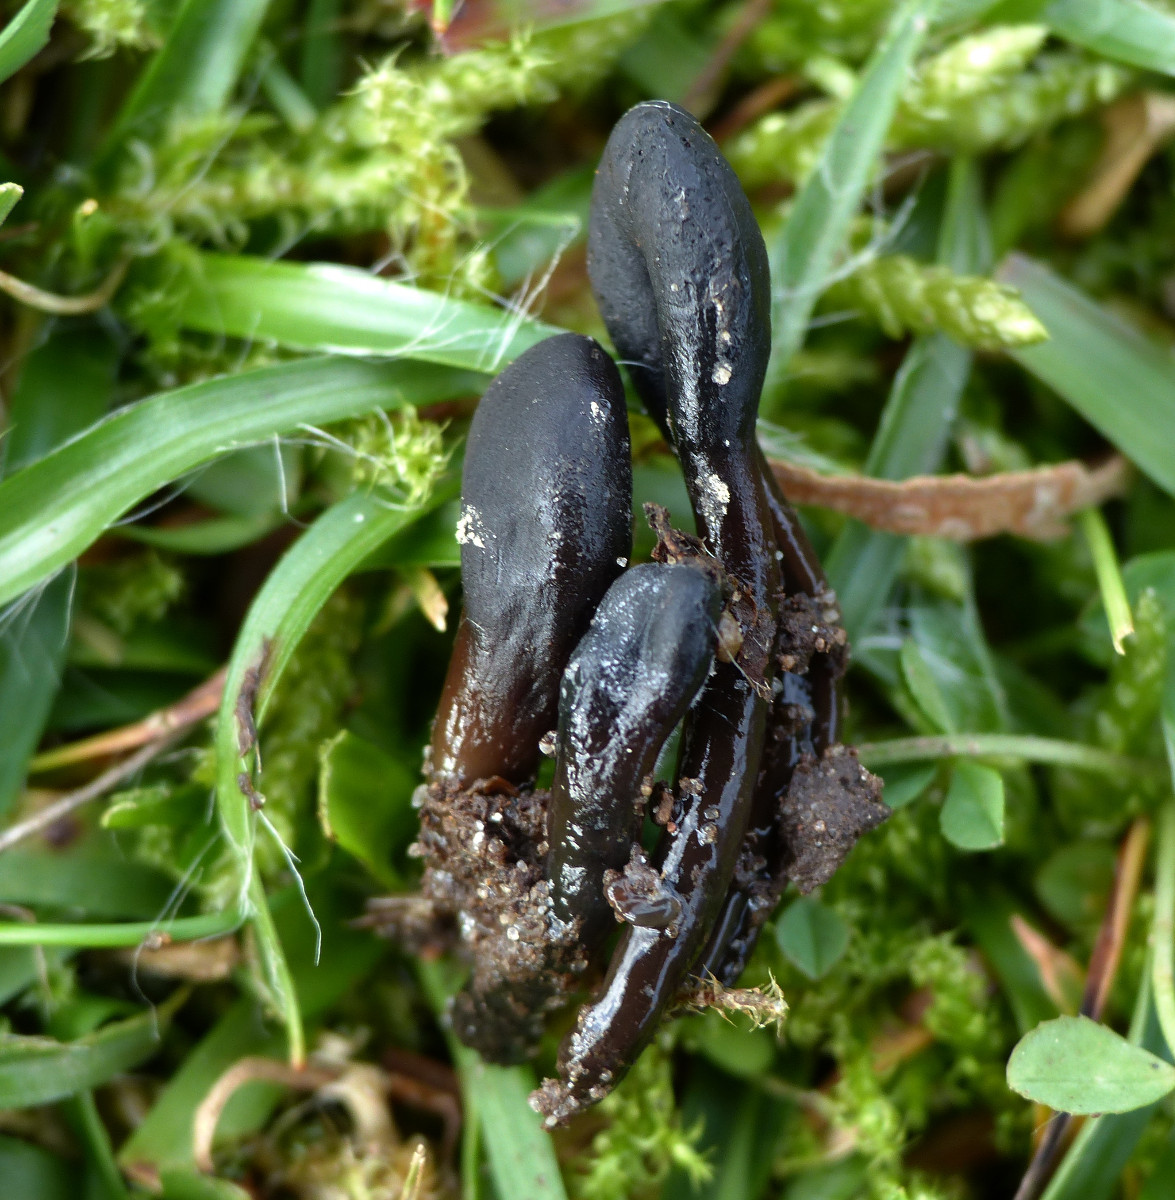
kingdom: Fungi
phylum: Ascomycota
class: Geoglossomycetes
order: Geoglossales
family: Geoglossaceae
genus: Glutinoglossum
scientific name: Glutinoglossum glutinosum
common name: slimet jordtunge
